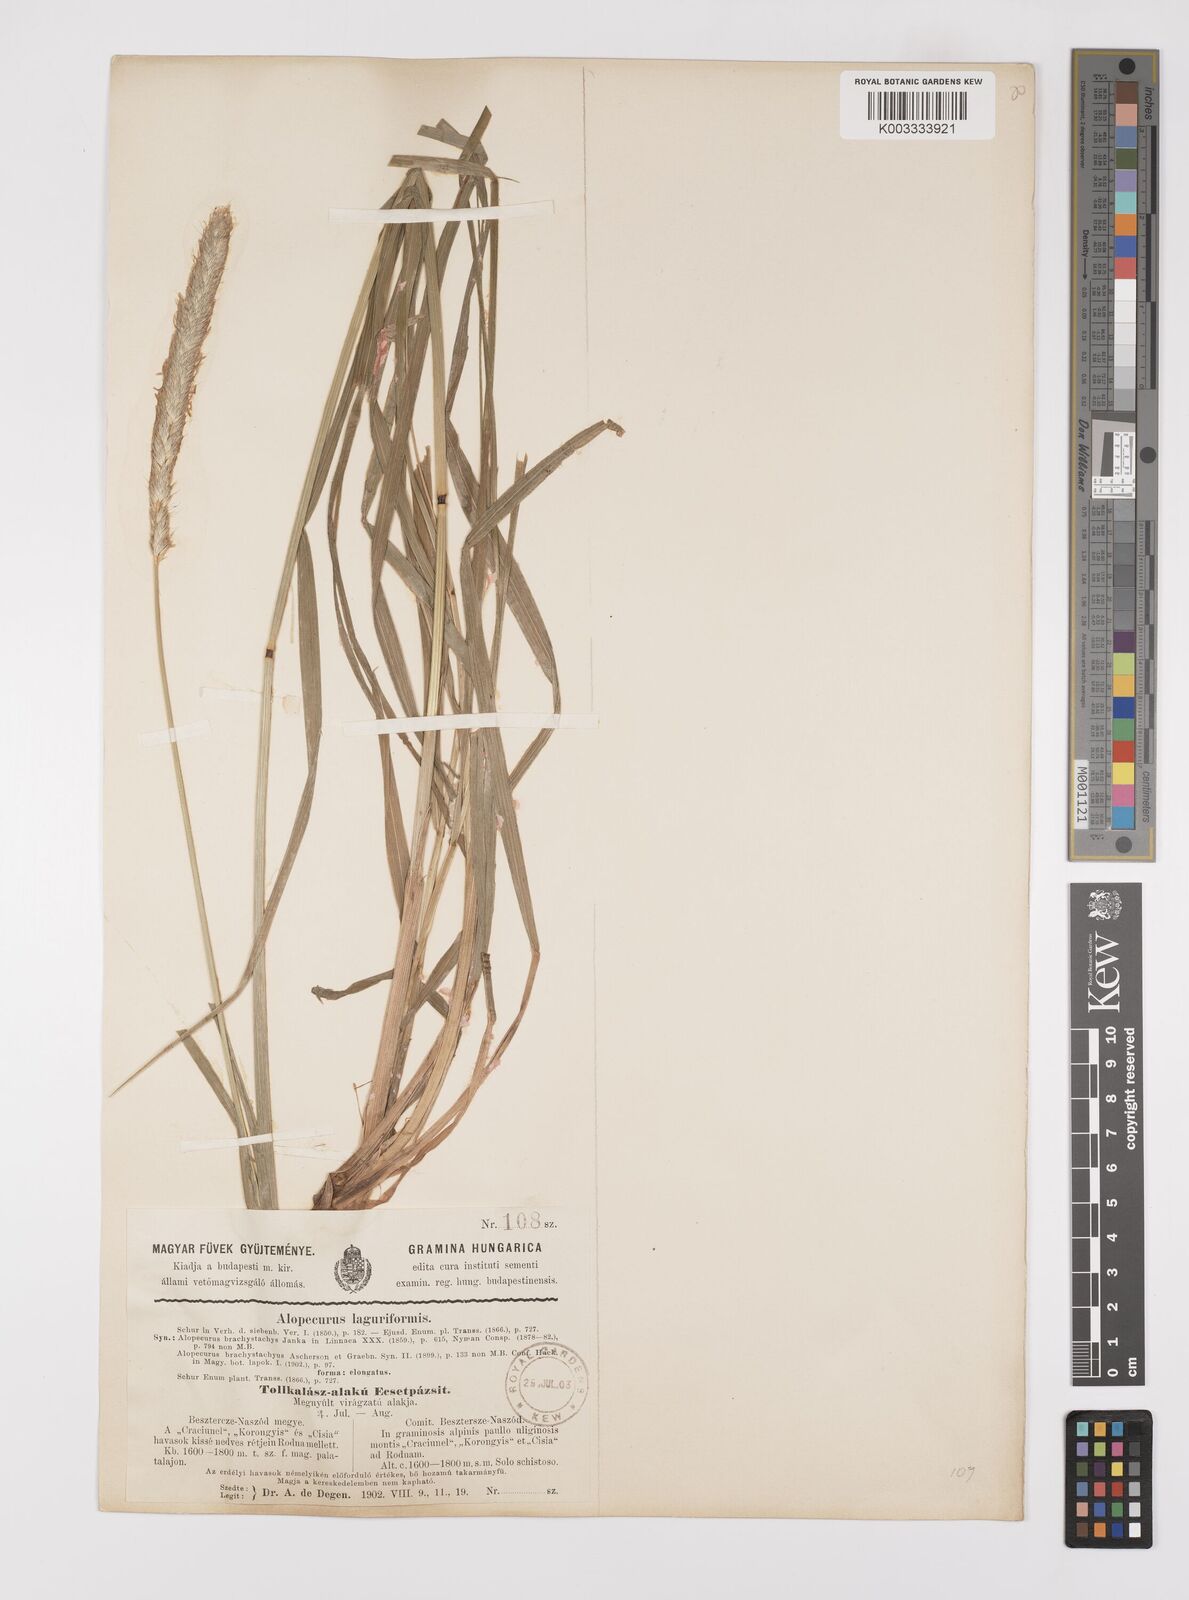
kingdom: Plantae
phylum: Tracheophyta
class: Liliopsida
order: Poales
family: Poaceae
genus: Alopecurus
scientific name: Alopecurus pratensis
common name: Meadow foxtail
